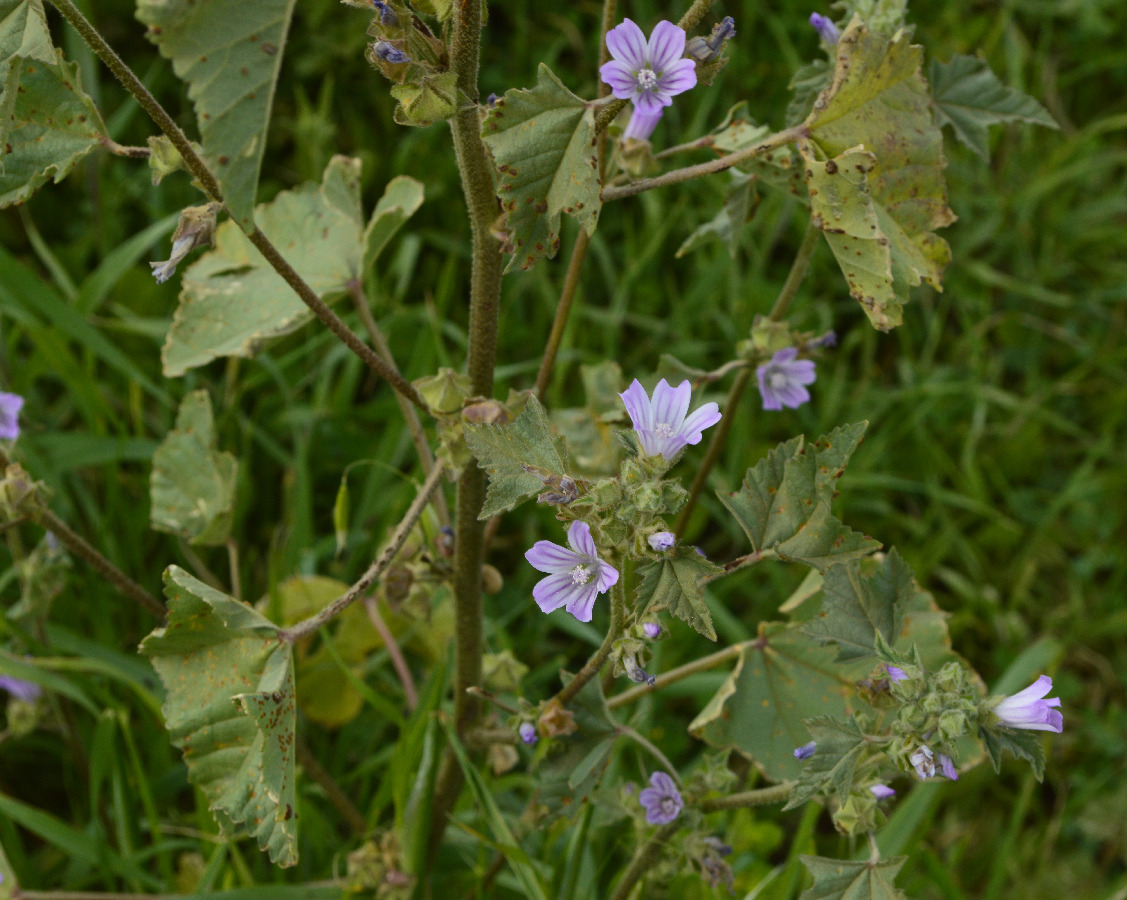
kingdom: Plantae
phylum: Tracheophyta
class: Magnoliopsida
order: Malvales
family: Malvaceae
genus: Malva
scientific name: Malva sylvestris
